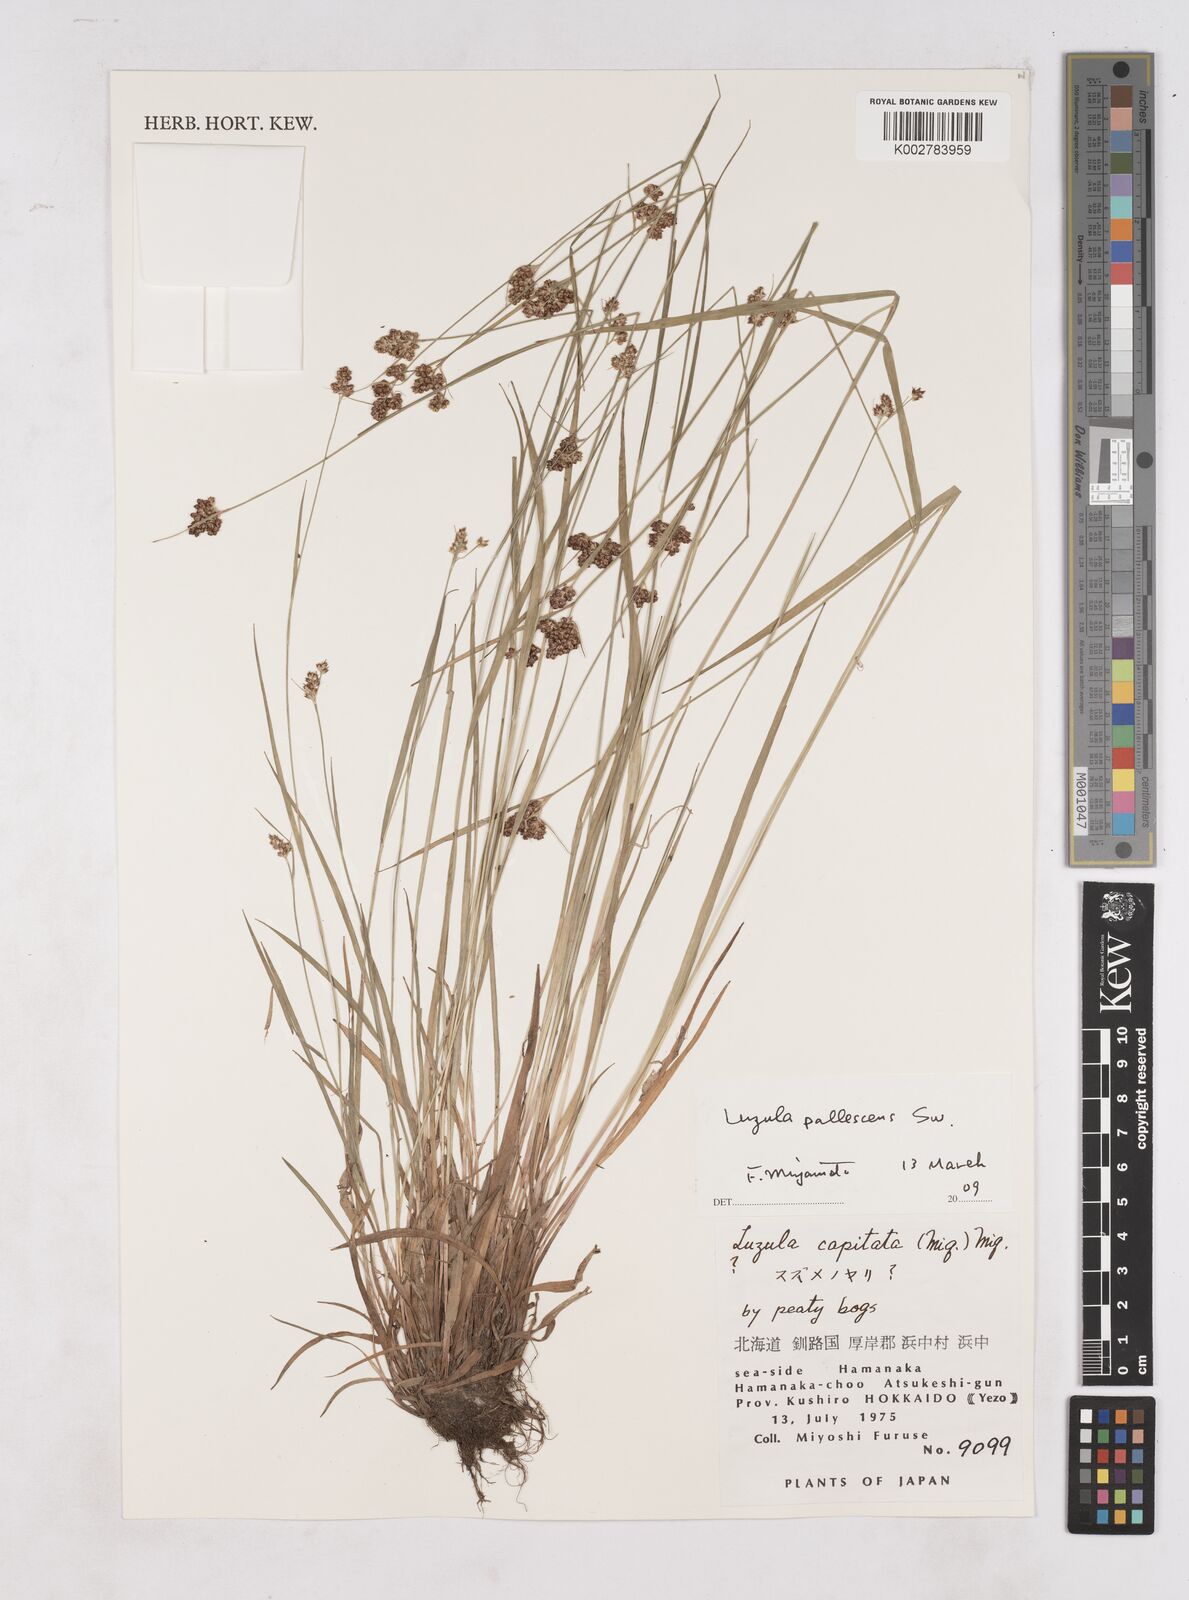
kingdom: Plantae
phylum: Tracheophyta
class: Liliopsida
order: Poales
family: Juncaceae
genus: Luzula
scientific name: Luzula capitata
